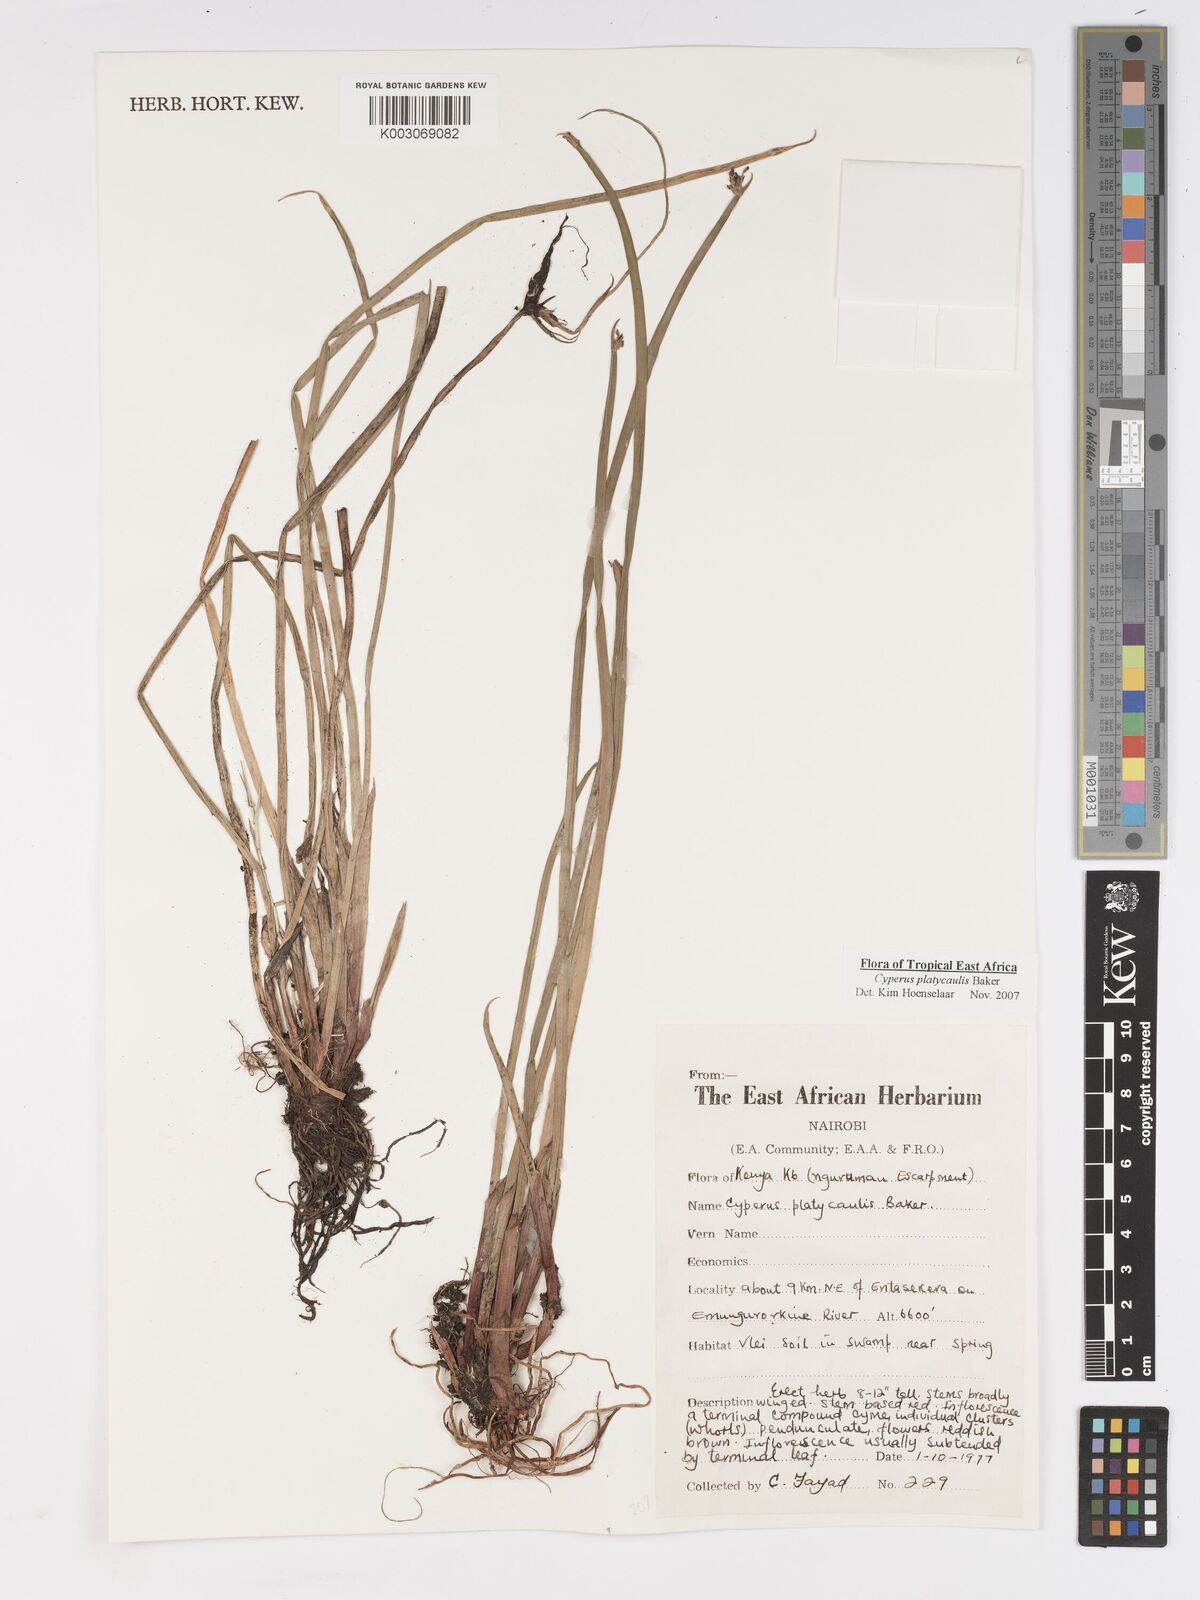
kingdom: Plantae
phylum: Tracheophyta
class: Liliopsida
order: Poales
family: Cyperaceae
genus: Cyperus
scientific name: Cyperus platycaulis
